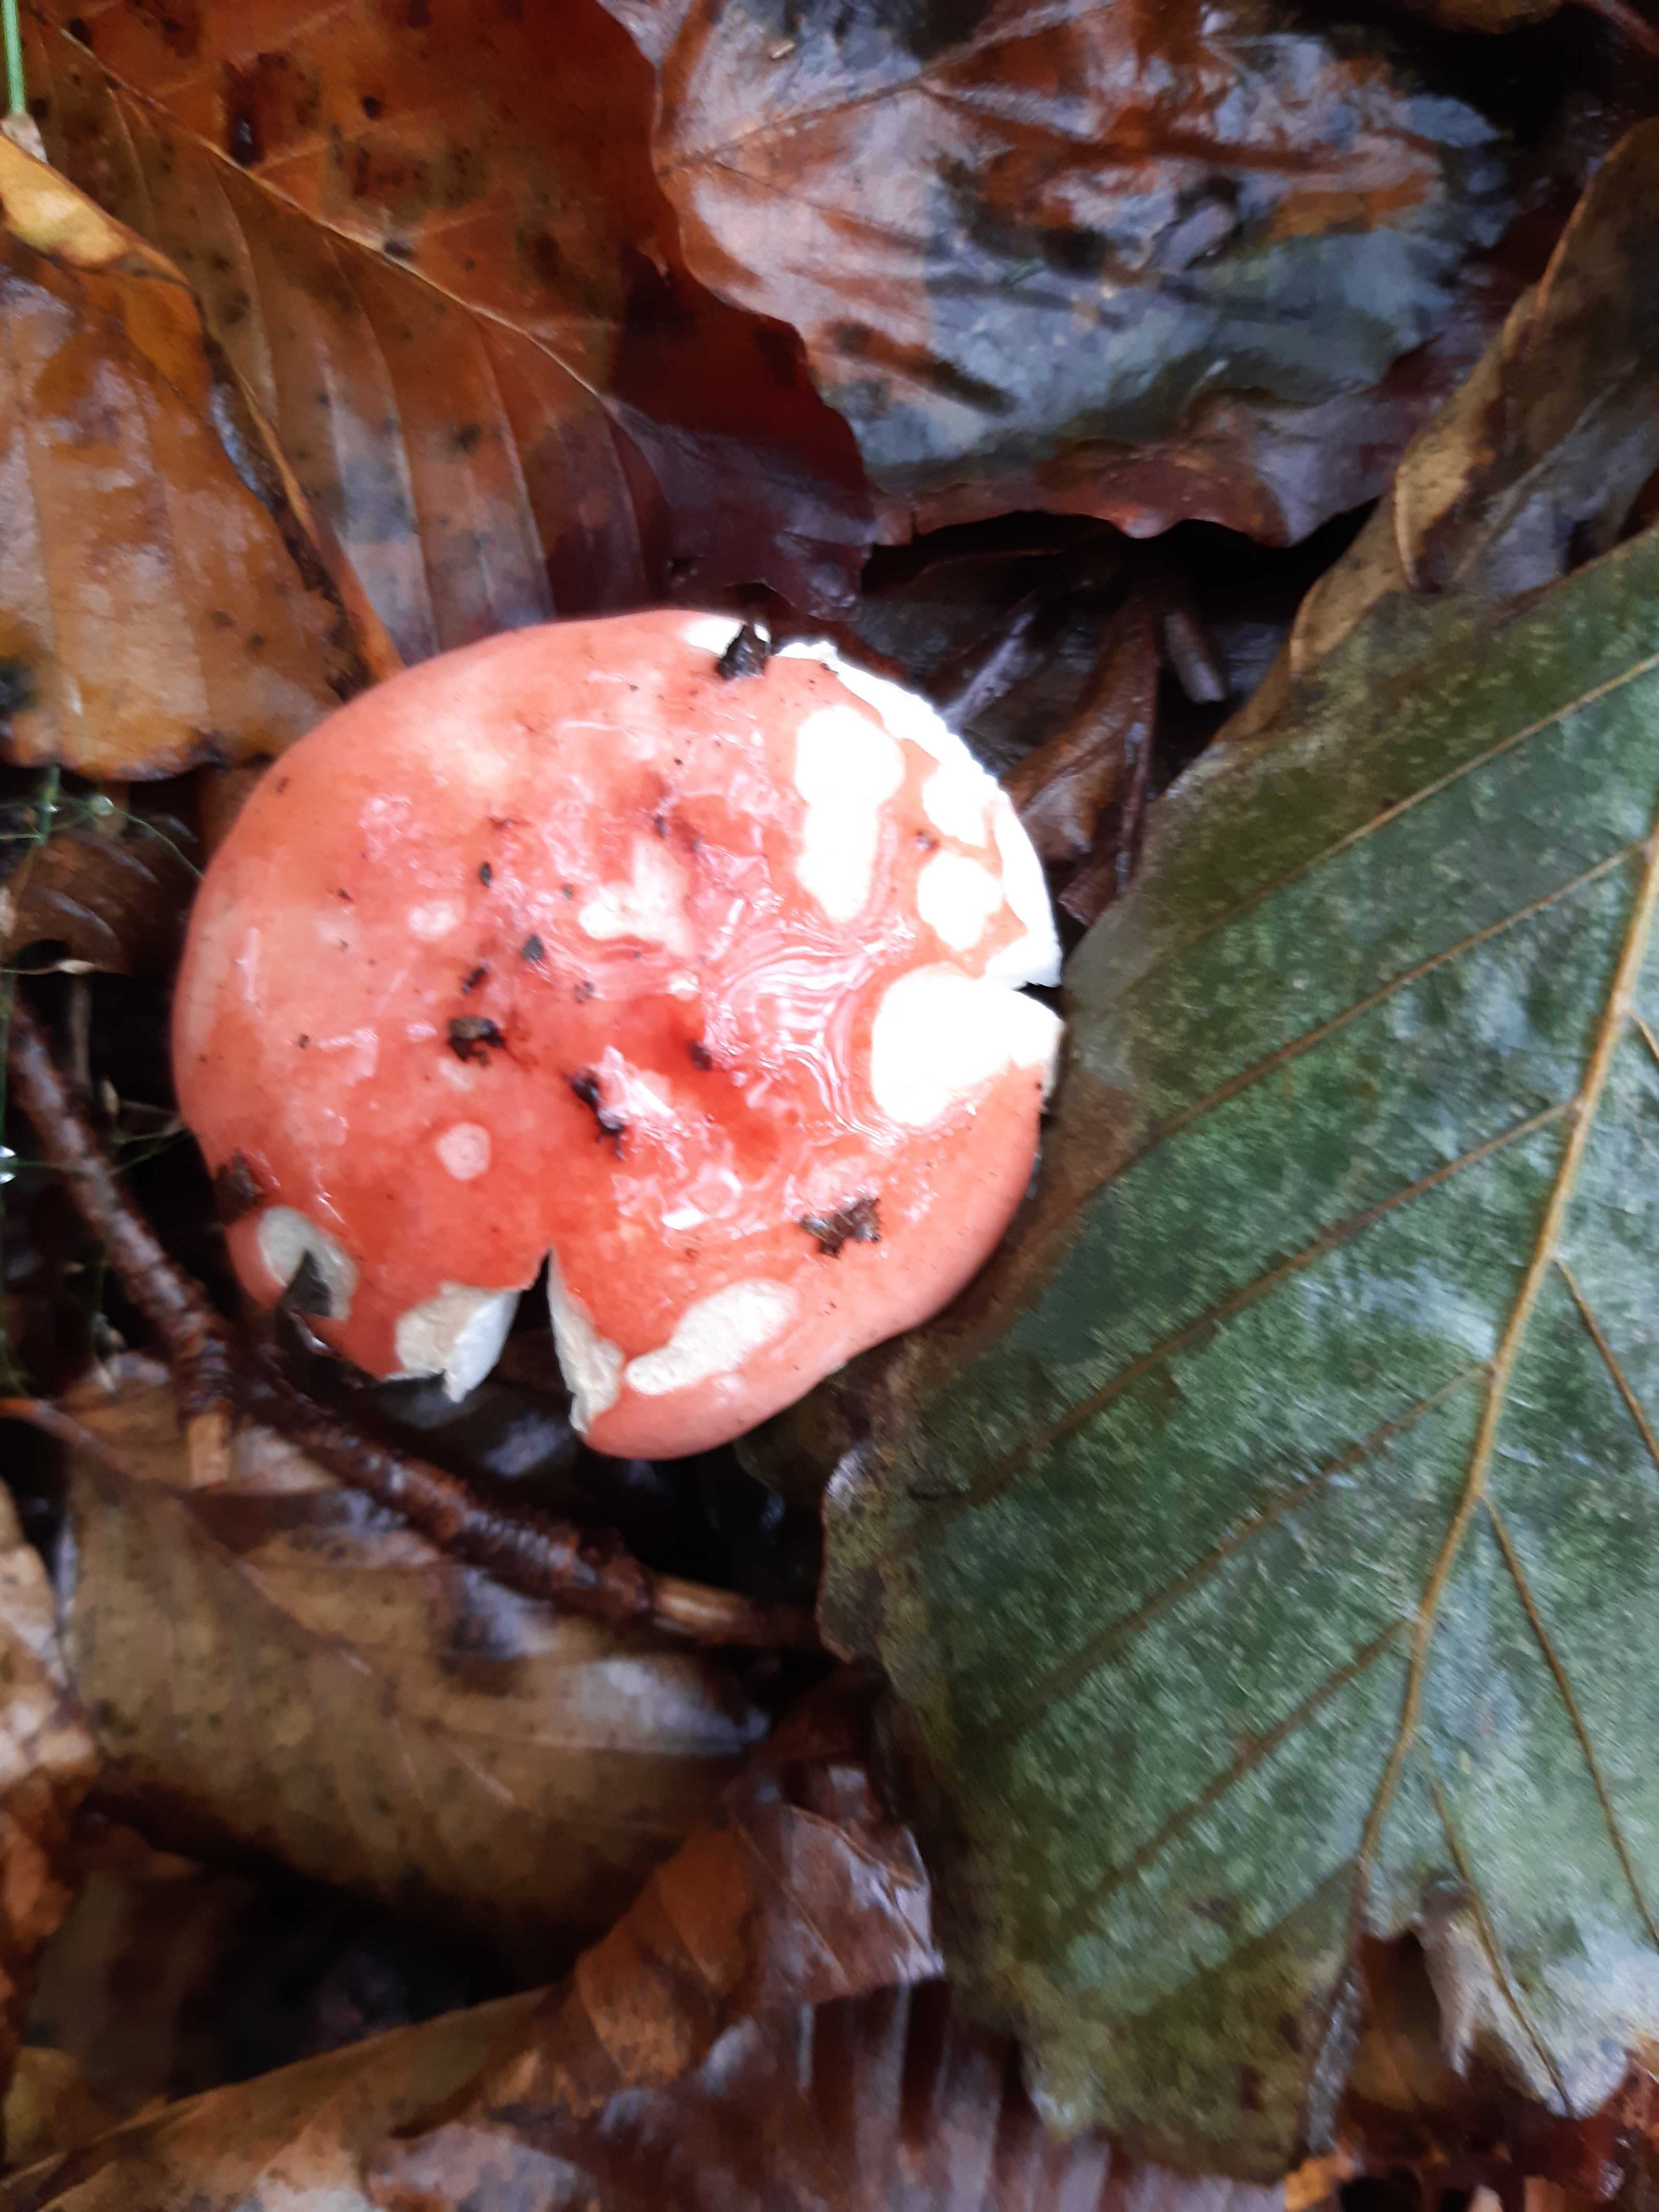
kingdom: Fungi
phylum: Basidiomycota
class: Agaricomycetes
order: Russulales
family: Russulaceae
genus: Russula
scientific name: Russula
